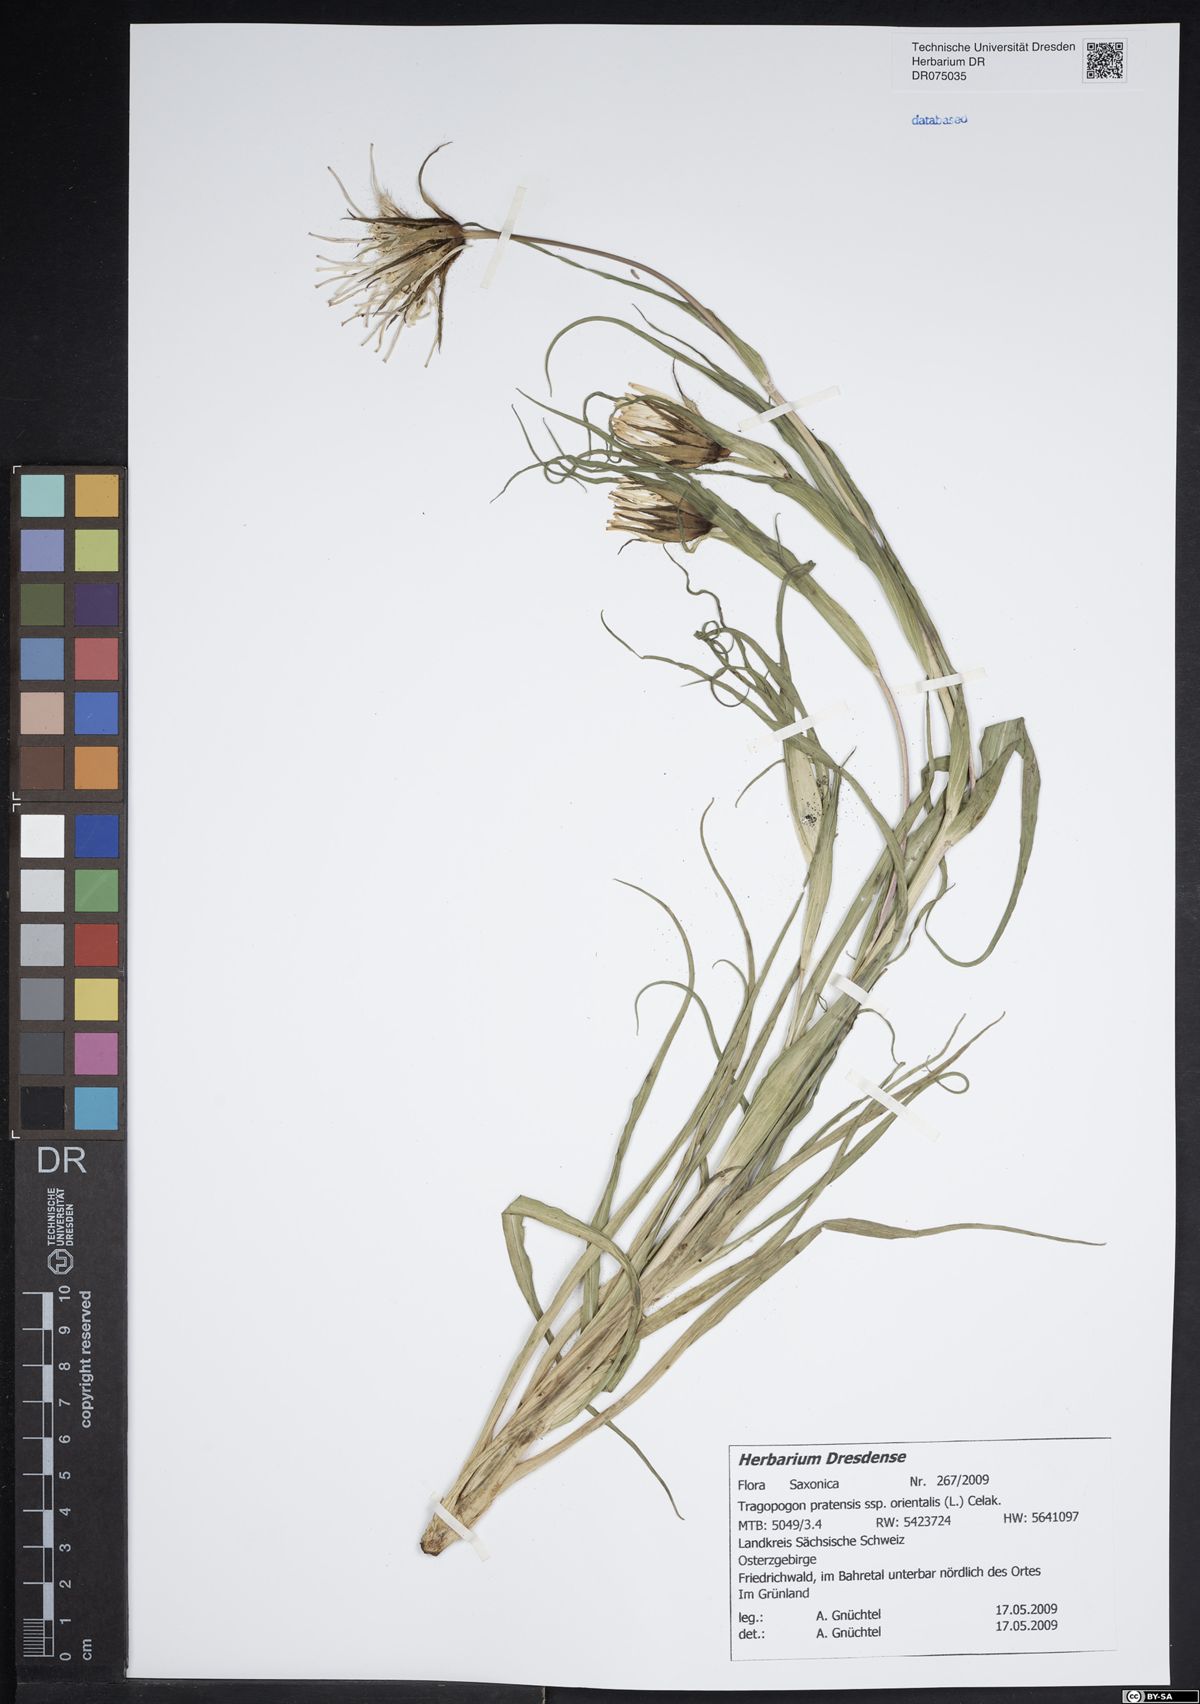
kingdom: Plantae
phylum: Tracheophyta
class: Magnoliopsida
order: Asterales
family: Asteraceae
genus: Tragopogon
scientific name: Tragopogon orientalis
